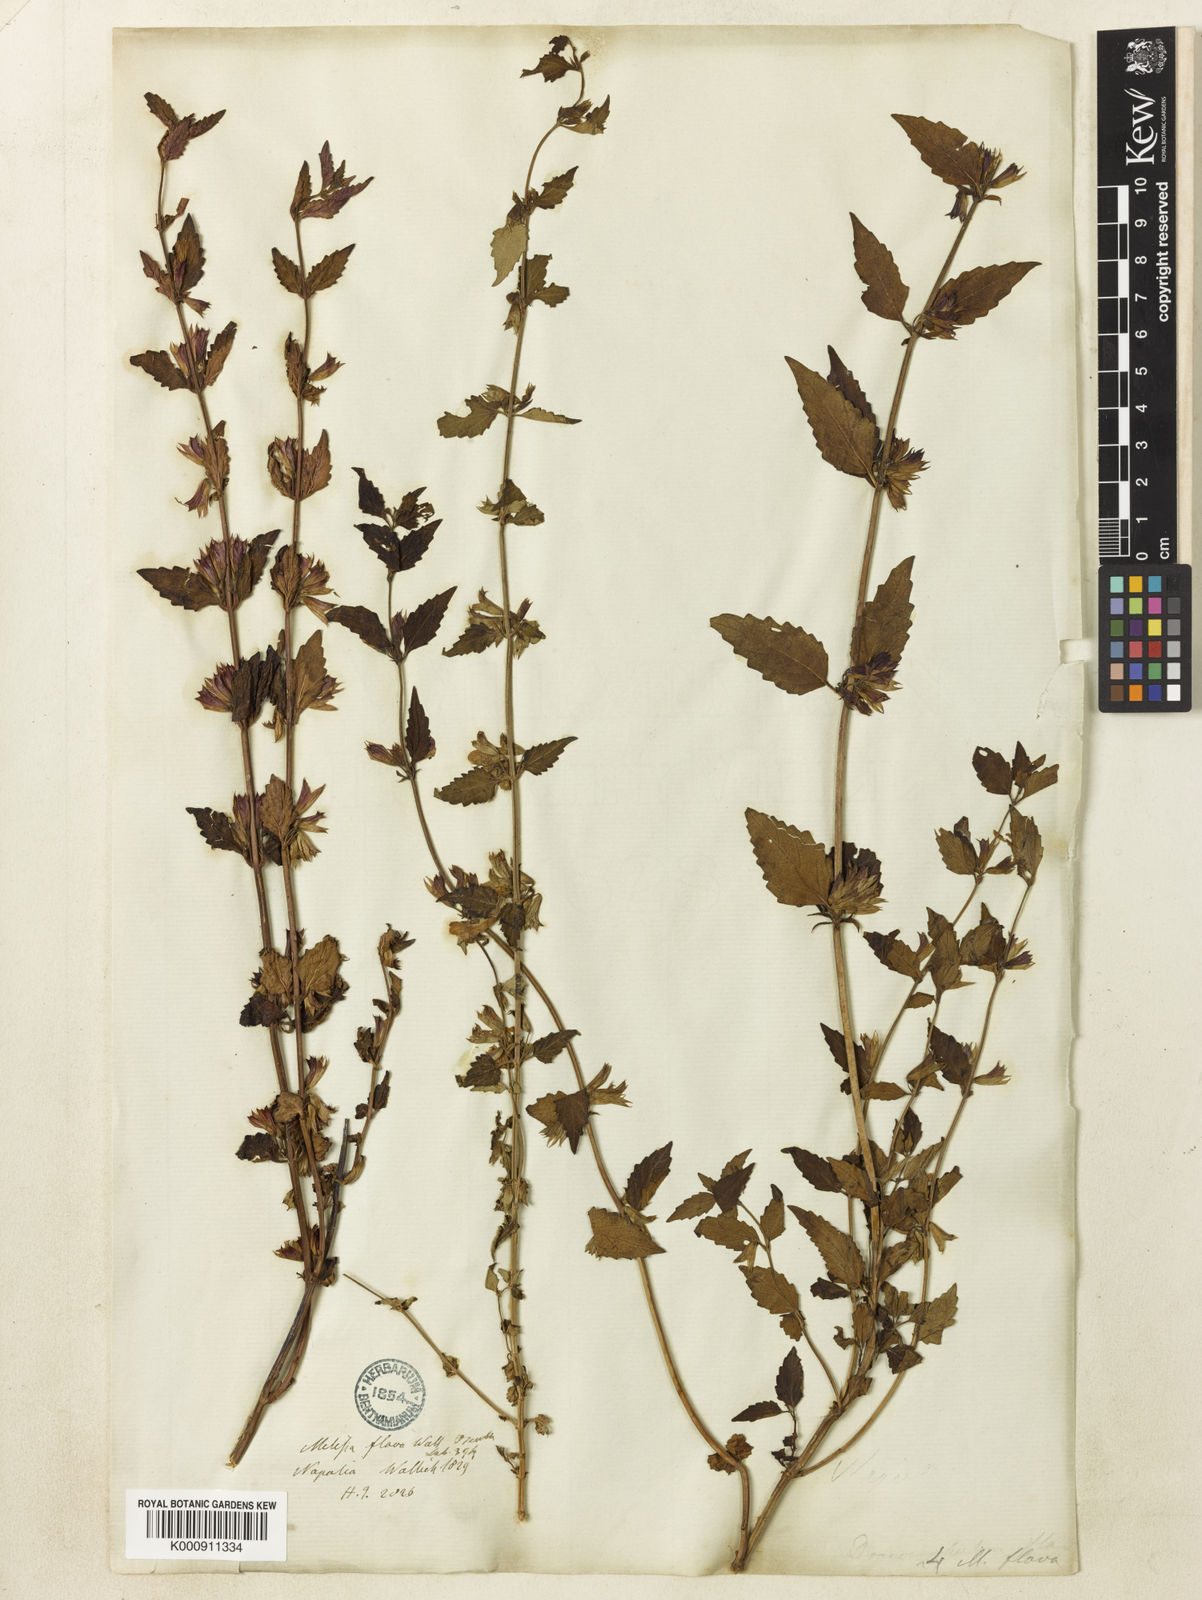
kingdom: Plantae
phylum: Tracheophyta
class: Magnoliopsida
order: Lamiales
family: Lamiaceae
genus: Melissa
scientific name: Melissa flava
